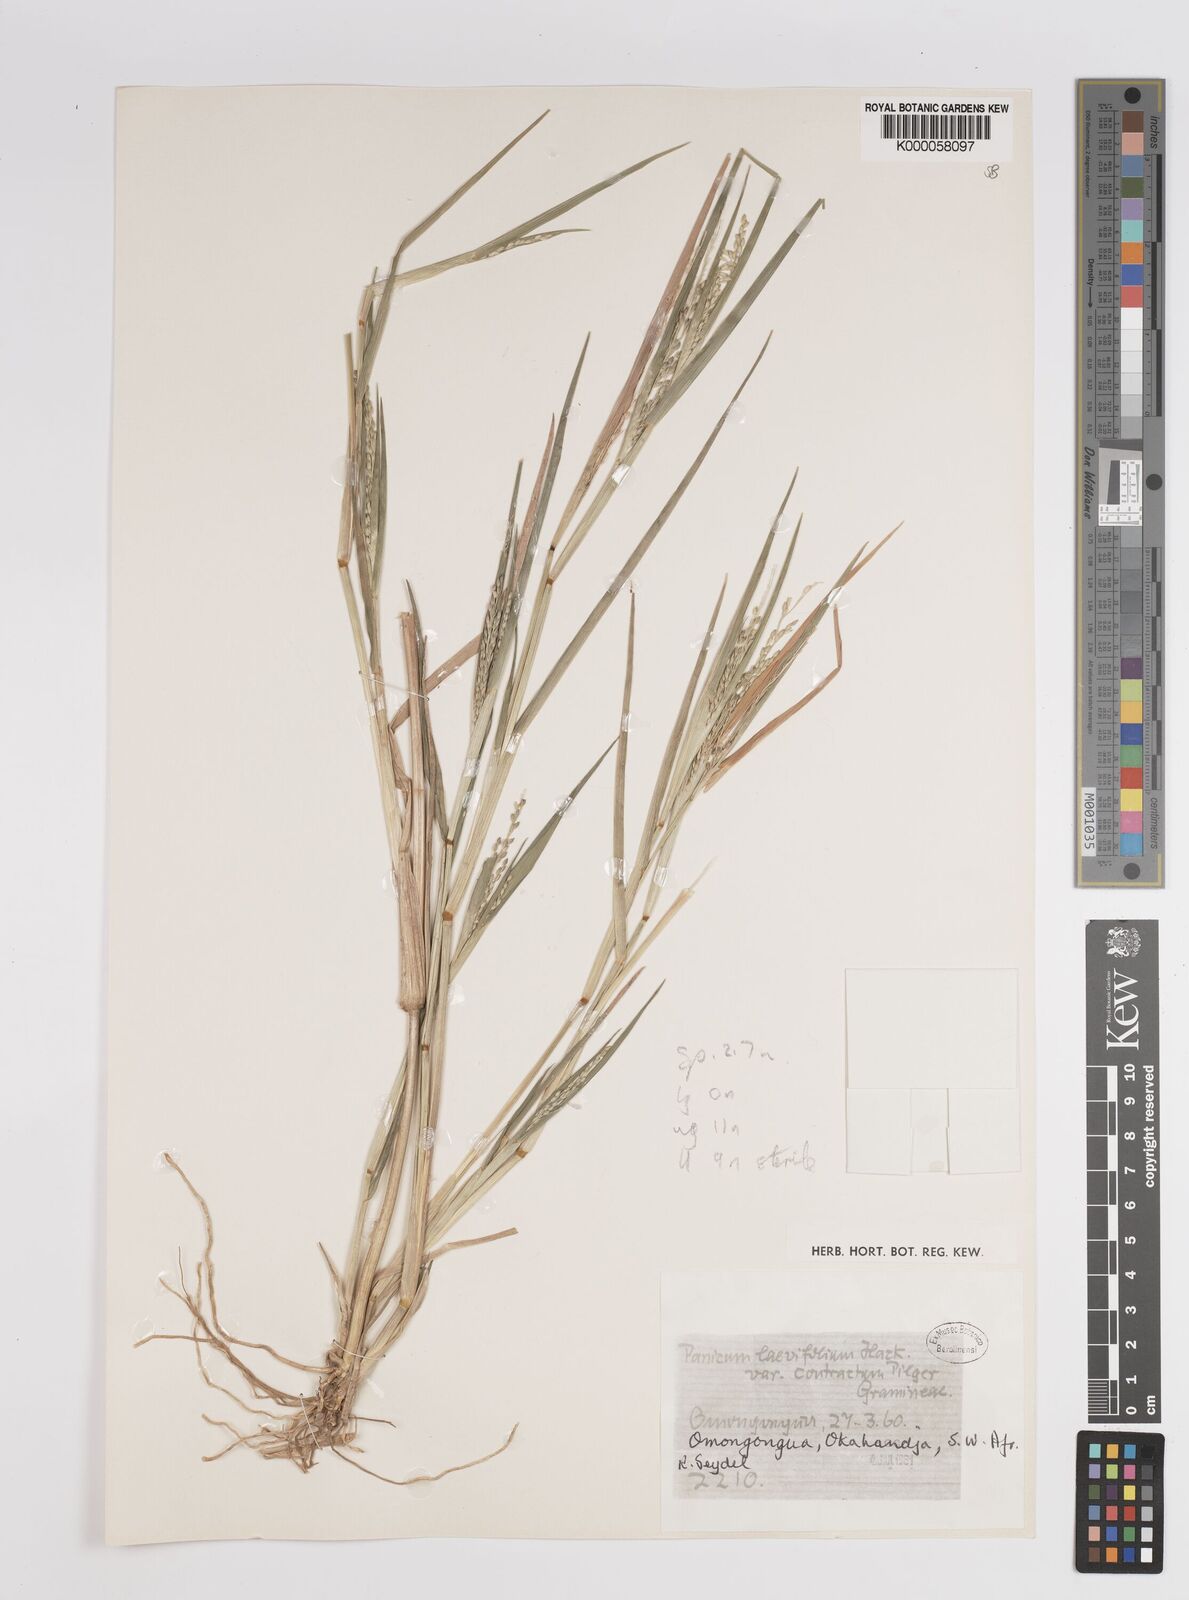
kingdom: Plantae
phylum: Tracheophyta
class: Liliopsida
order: Poales
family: Poaceae
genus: Panicum
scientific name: Panicum gilvum
